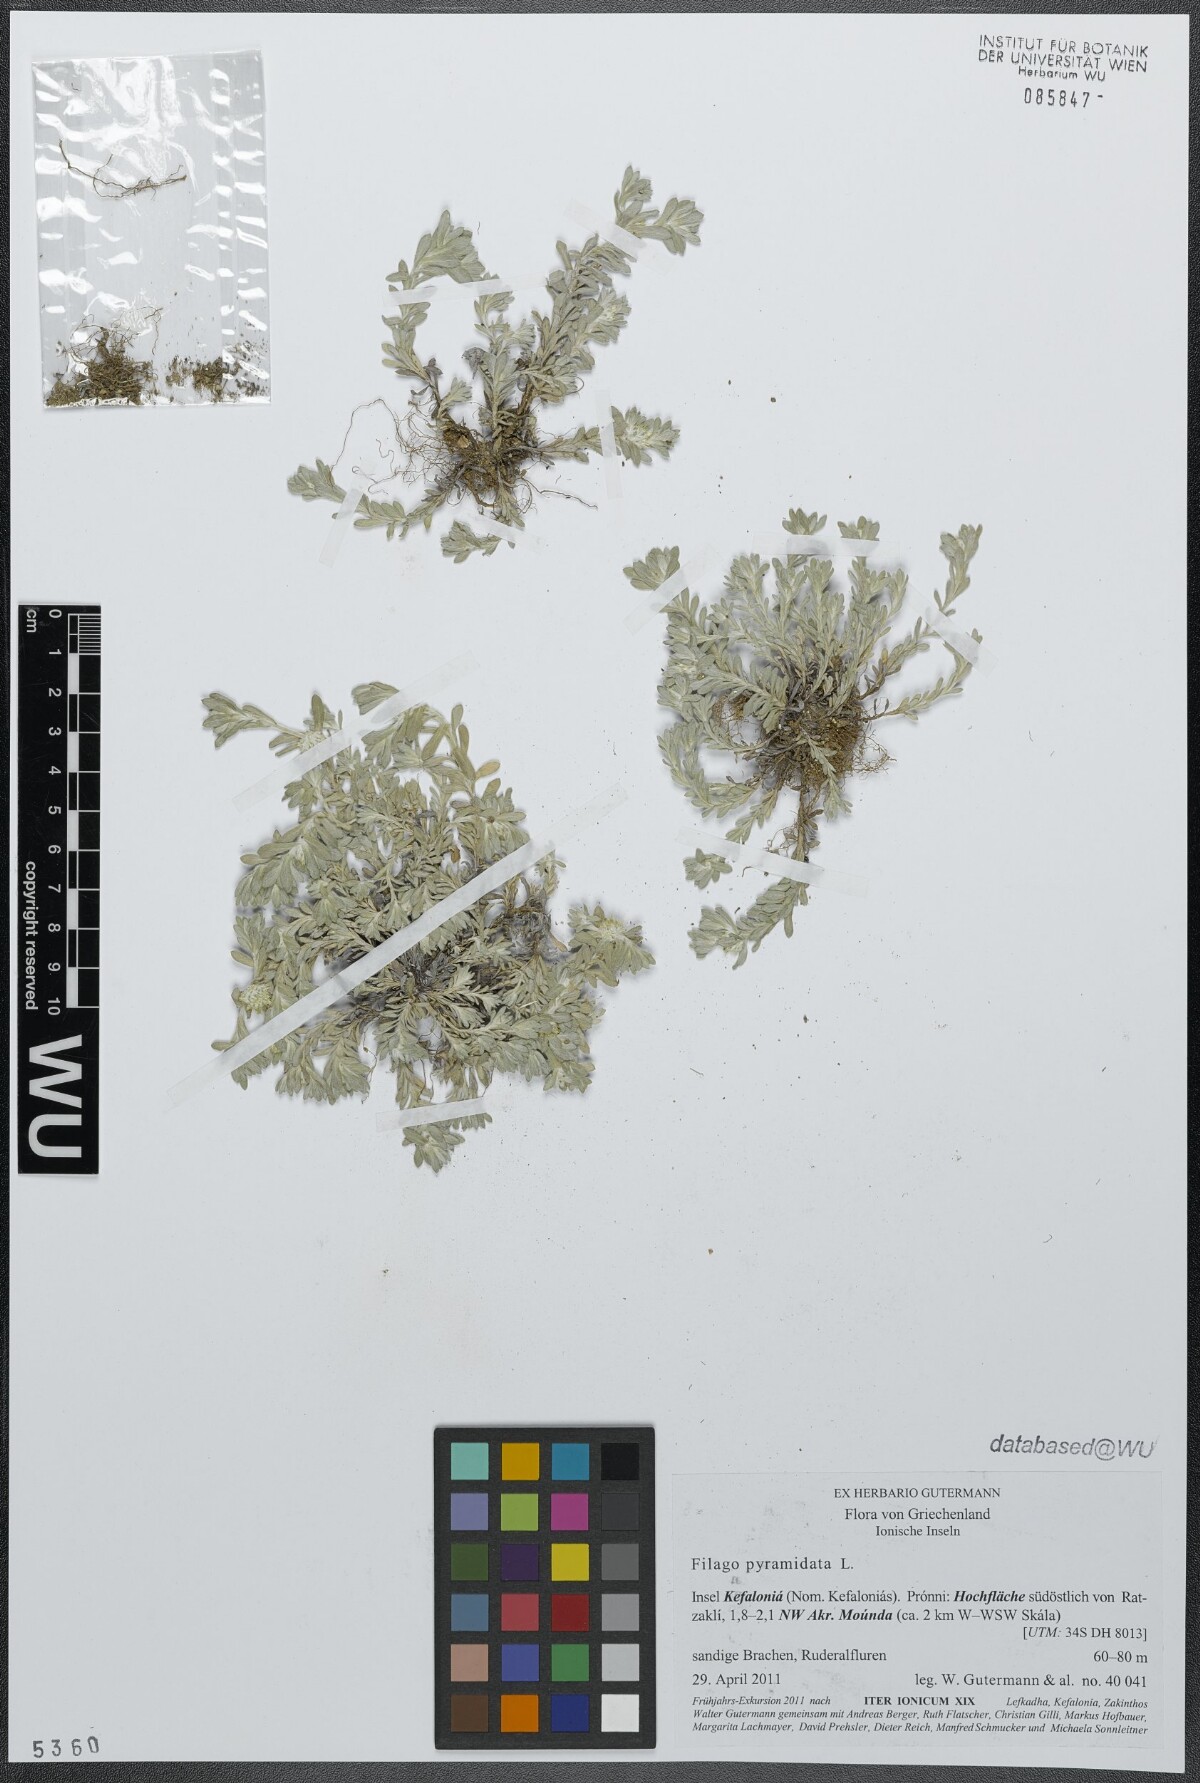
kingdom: Plantae
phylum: Tracheophyta
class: Magnoliopsida
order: Asterales
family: Asteraceae
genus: Filago
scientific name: Filago pyramidata
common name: Broad-leaved cudweed
